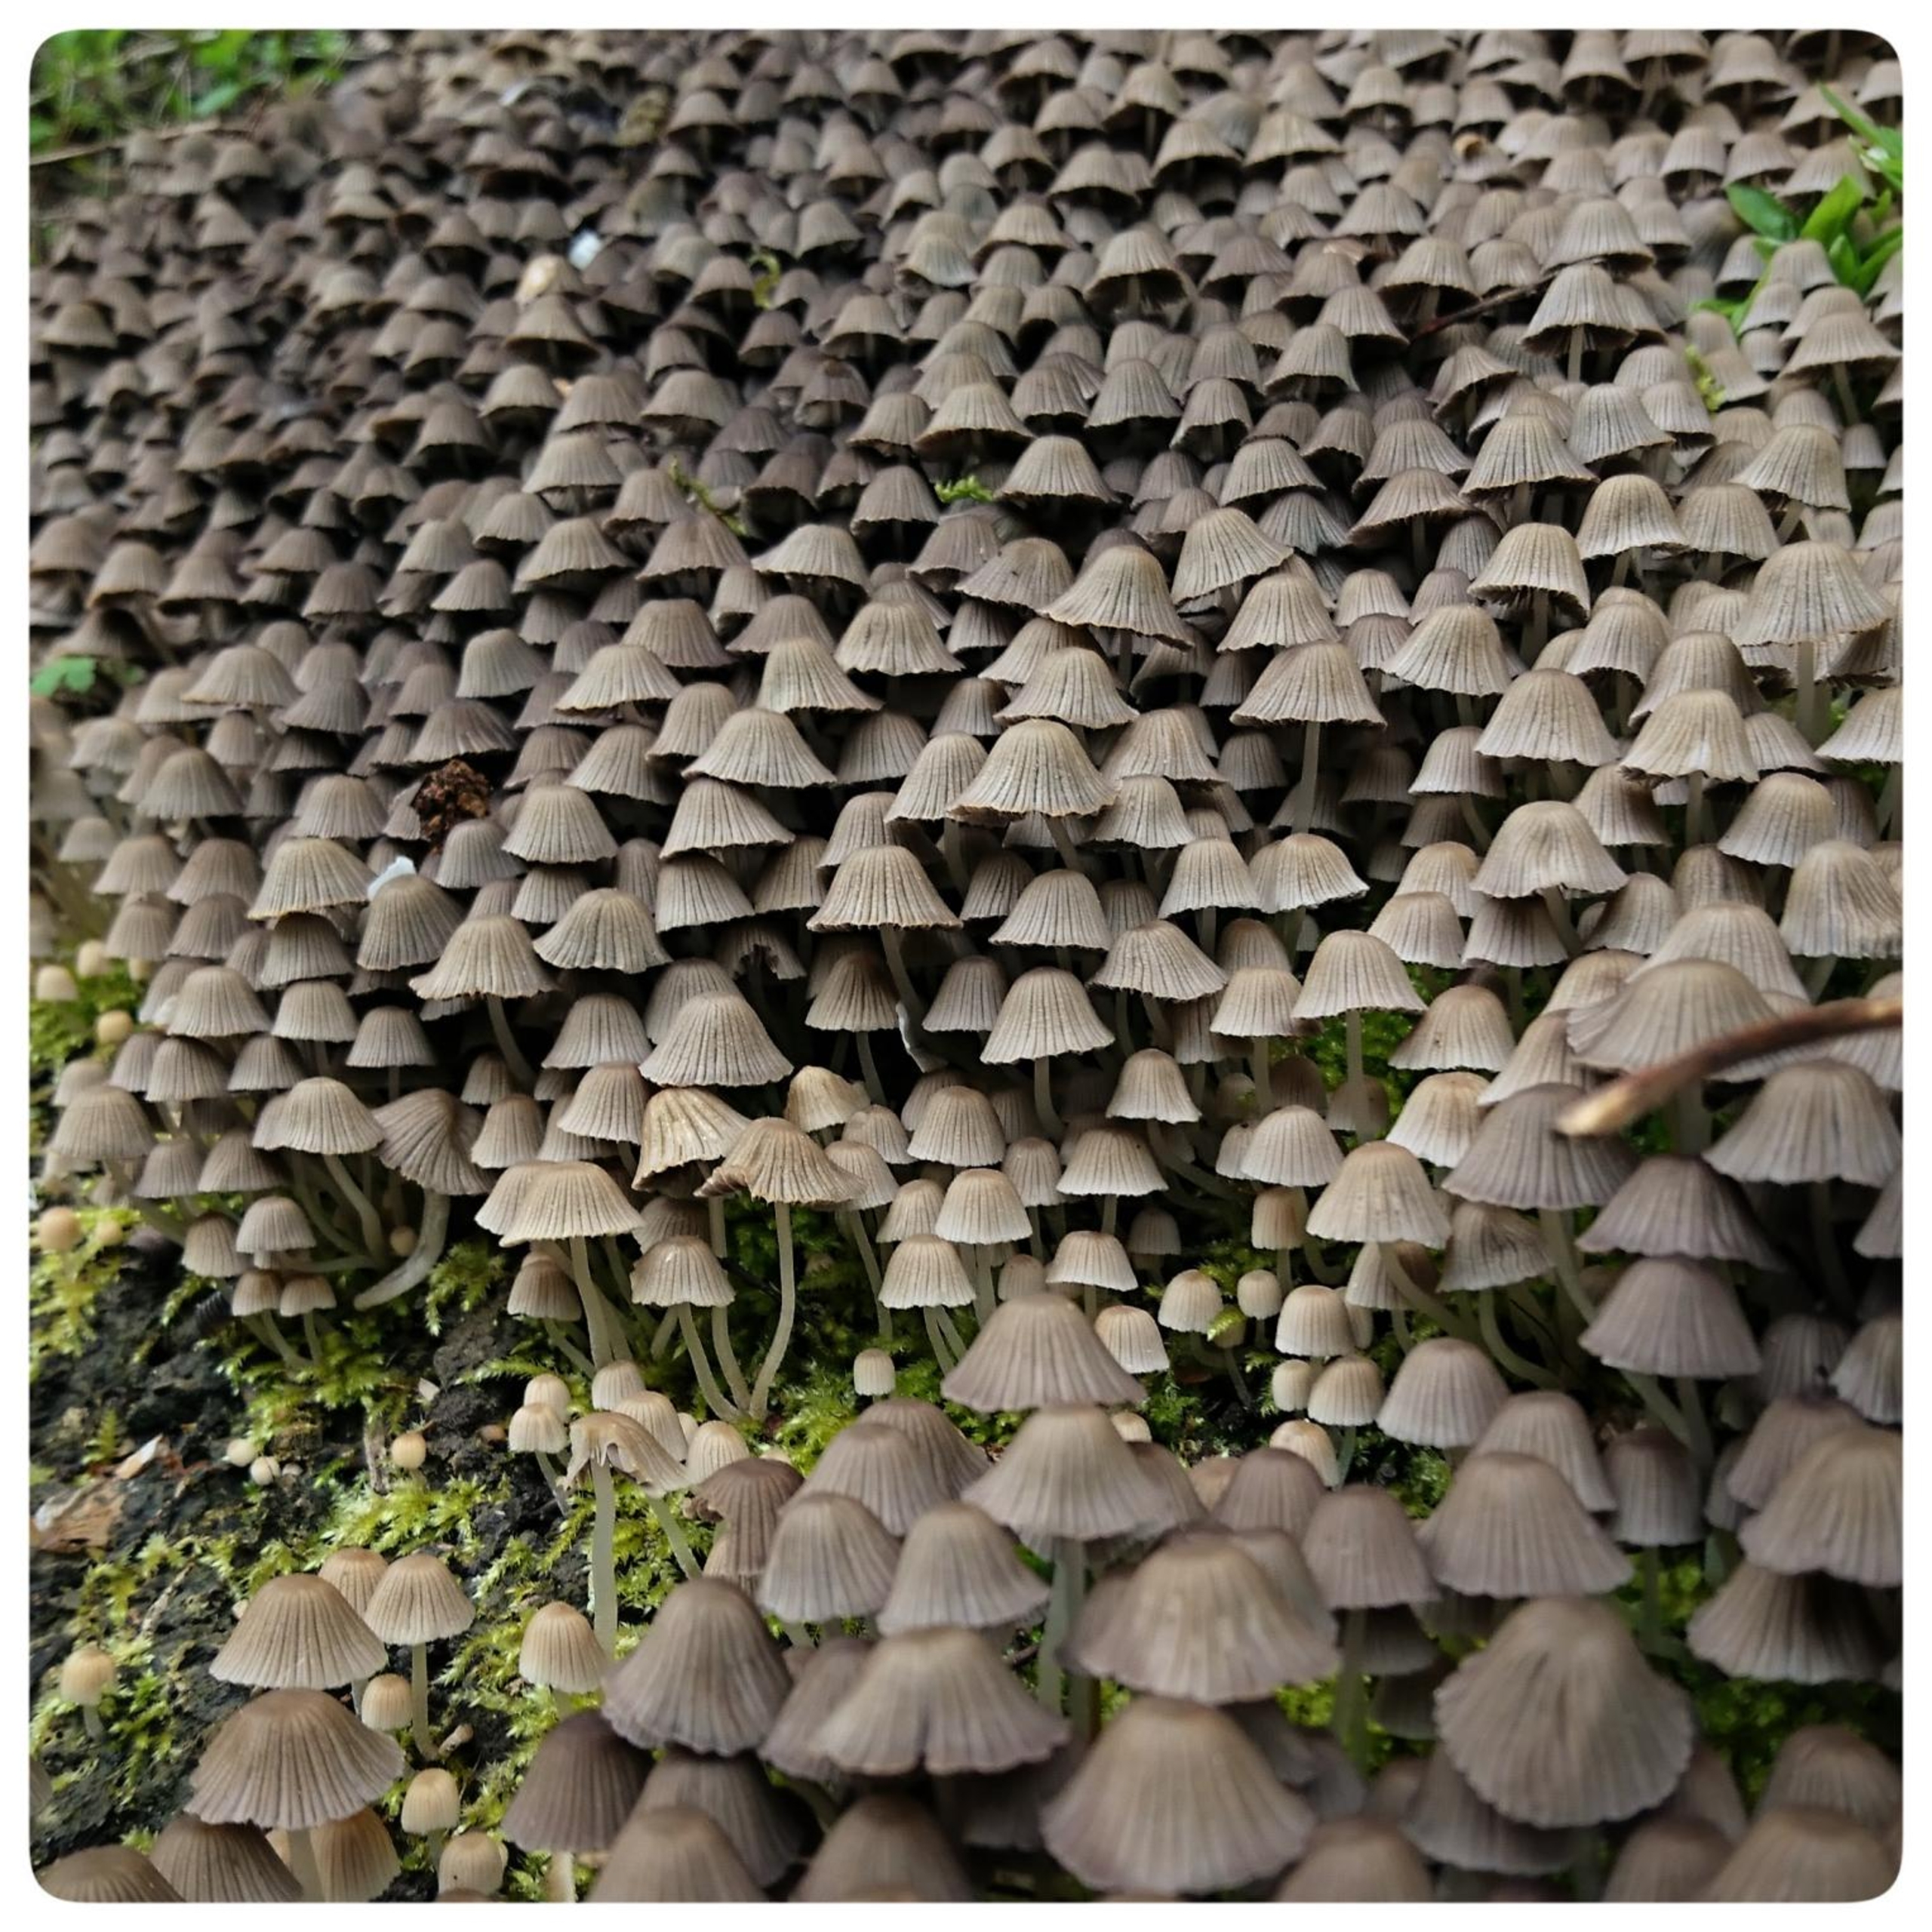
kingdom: Fungi
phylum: Basidiomycota
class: Agaricomycetes
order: Agaricales
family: Psathyrellaceae
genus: Coprinellus
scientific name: Coprinellus disseminatus
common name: Bredsået blækhat
